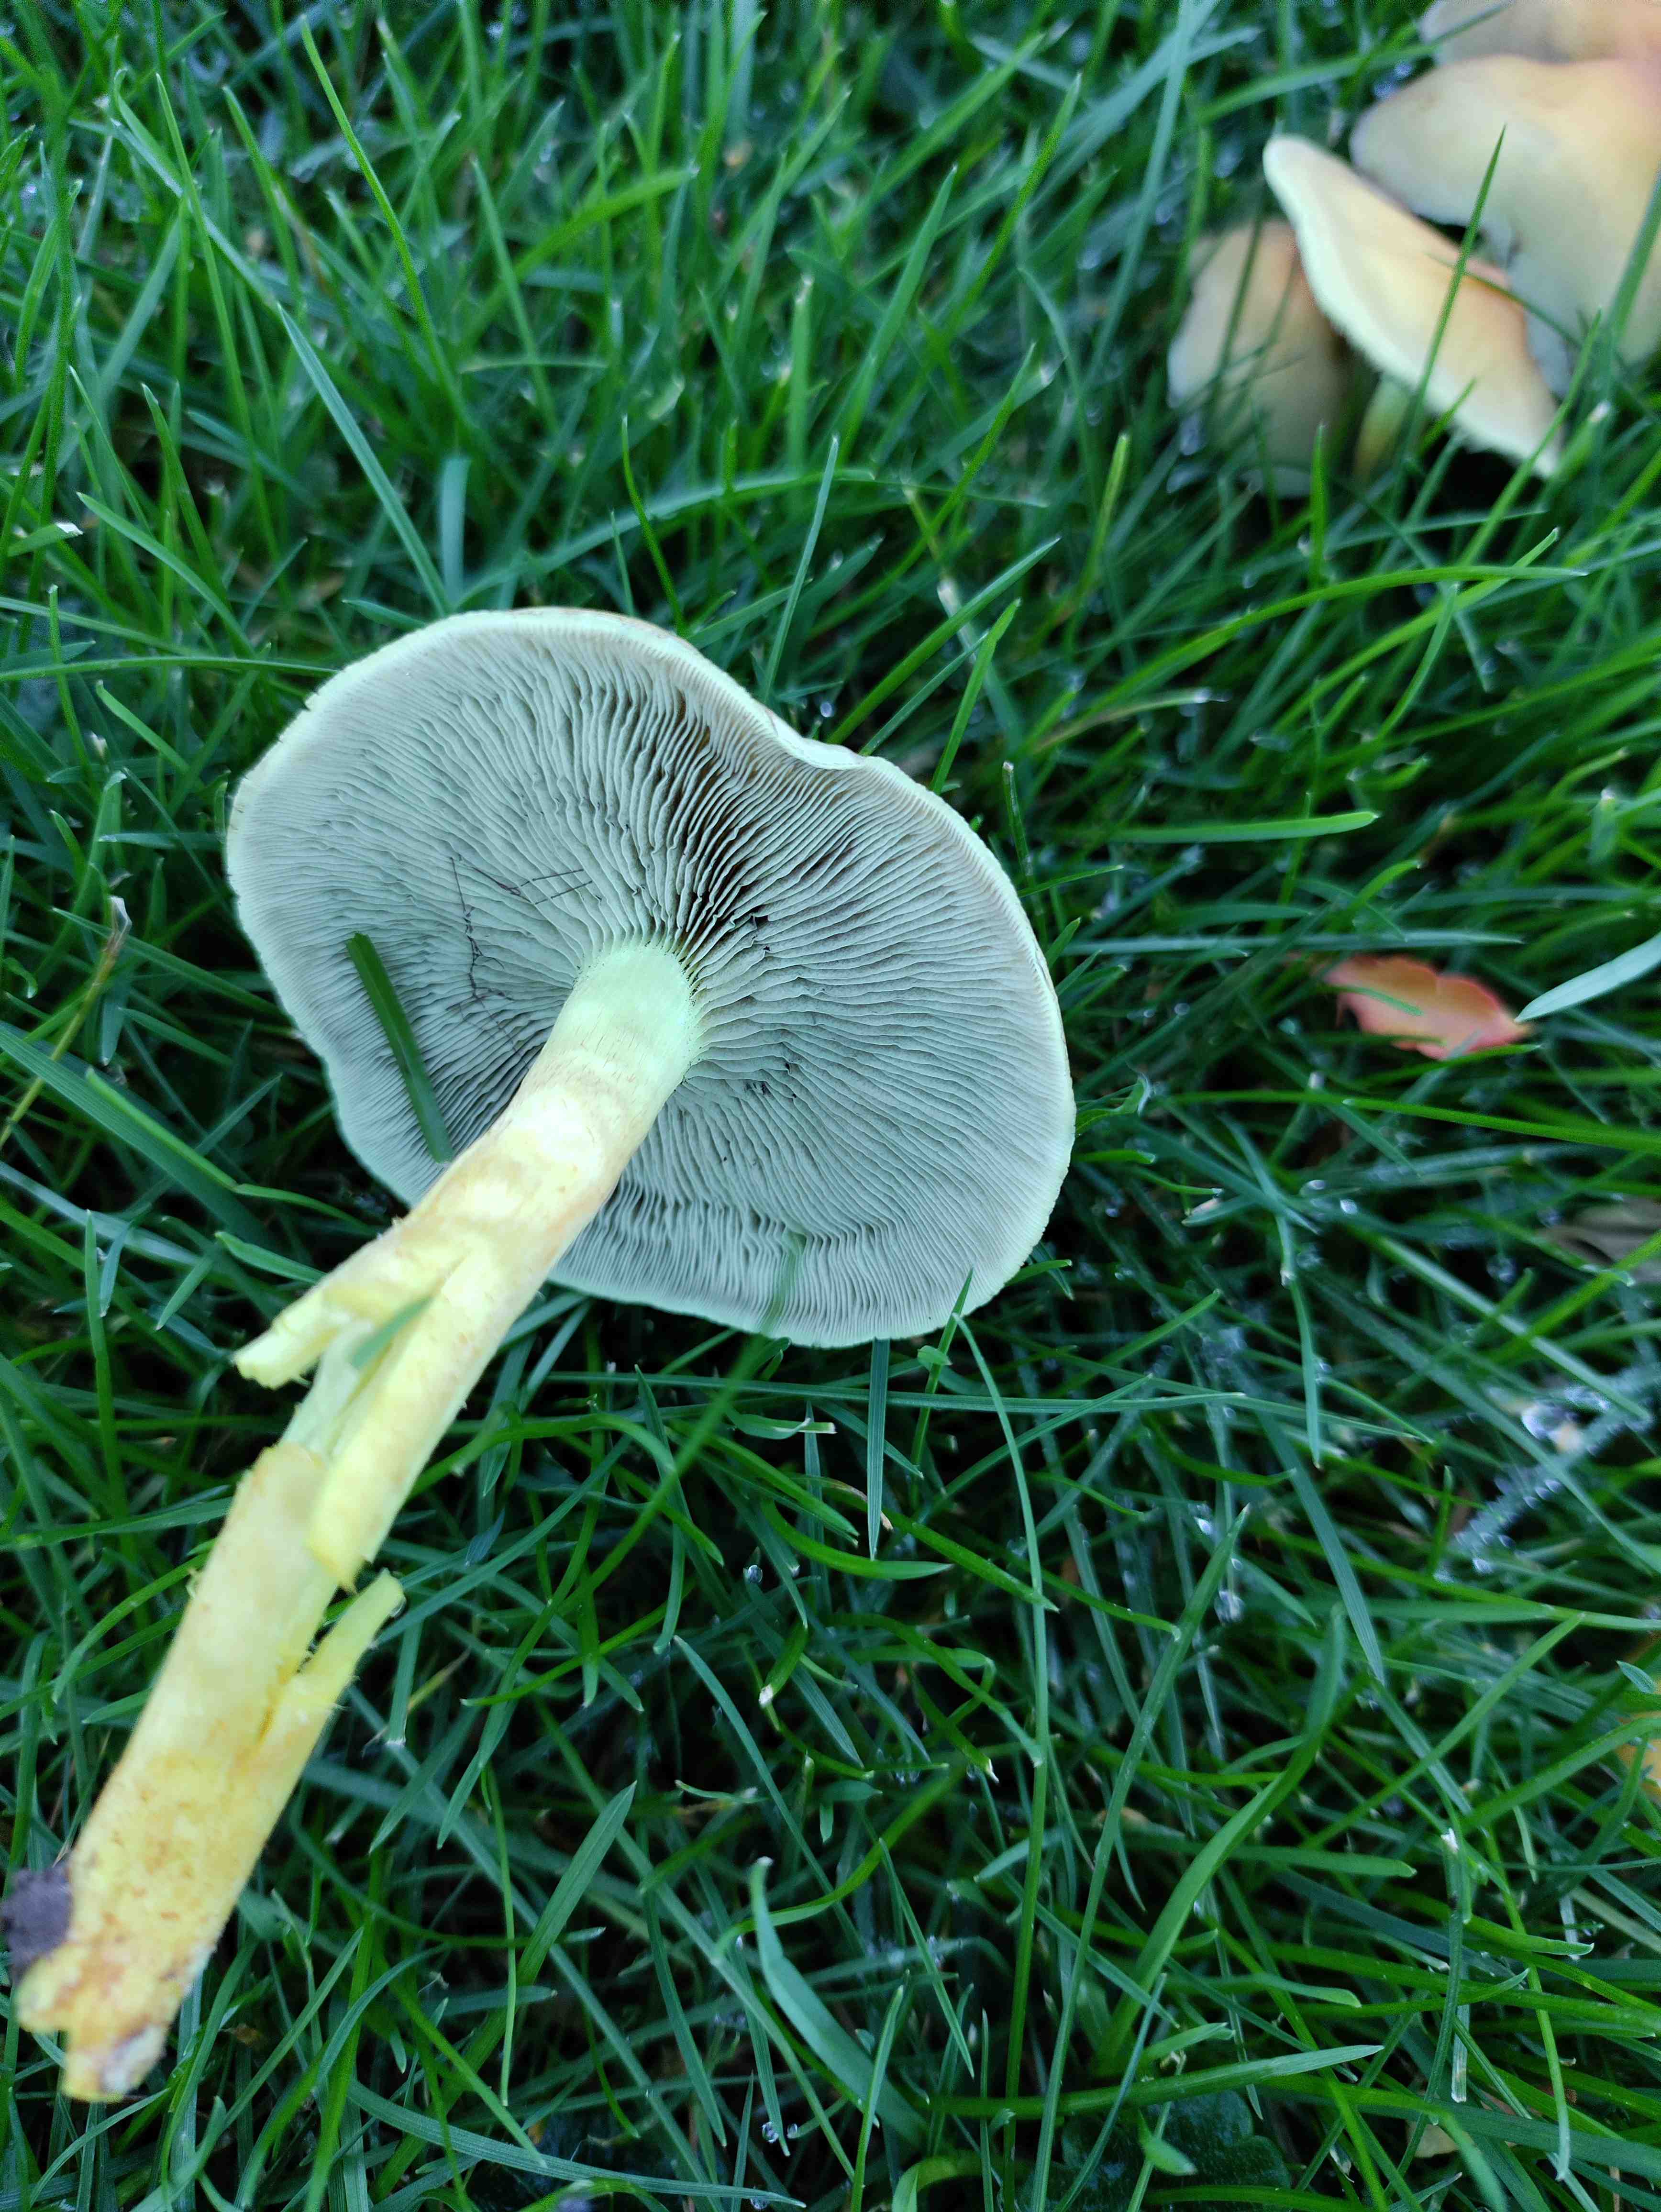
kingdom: Fungi
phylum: Basidiomycota
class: Agaricomycetes
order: Agaricales
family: Strophariaceae
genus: Hypholoma
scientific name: Hypholoma fasciculare
